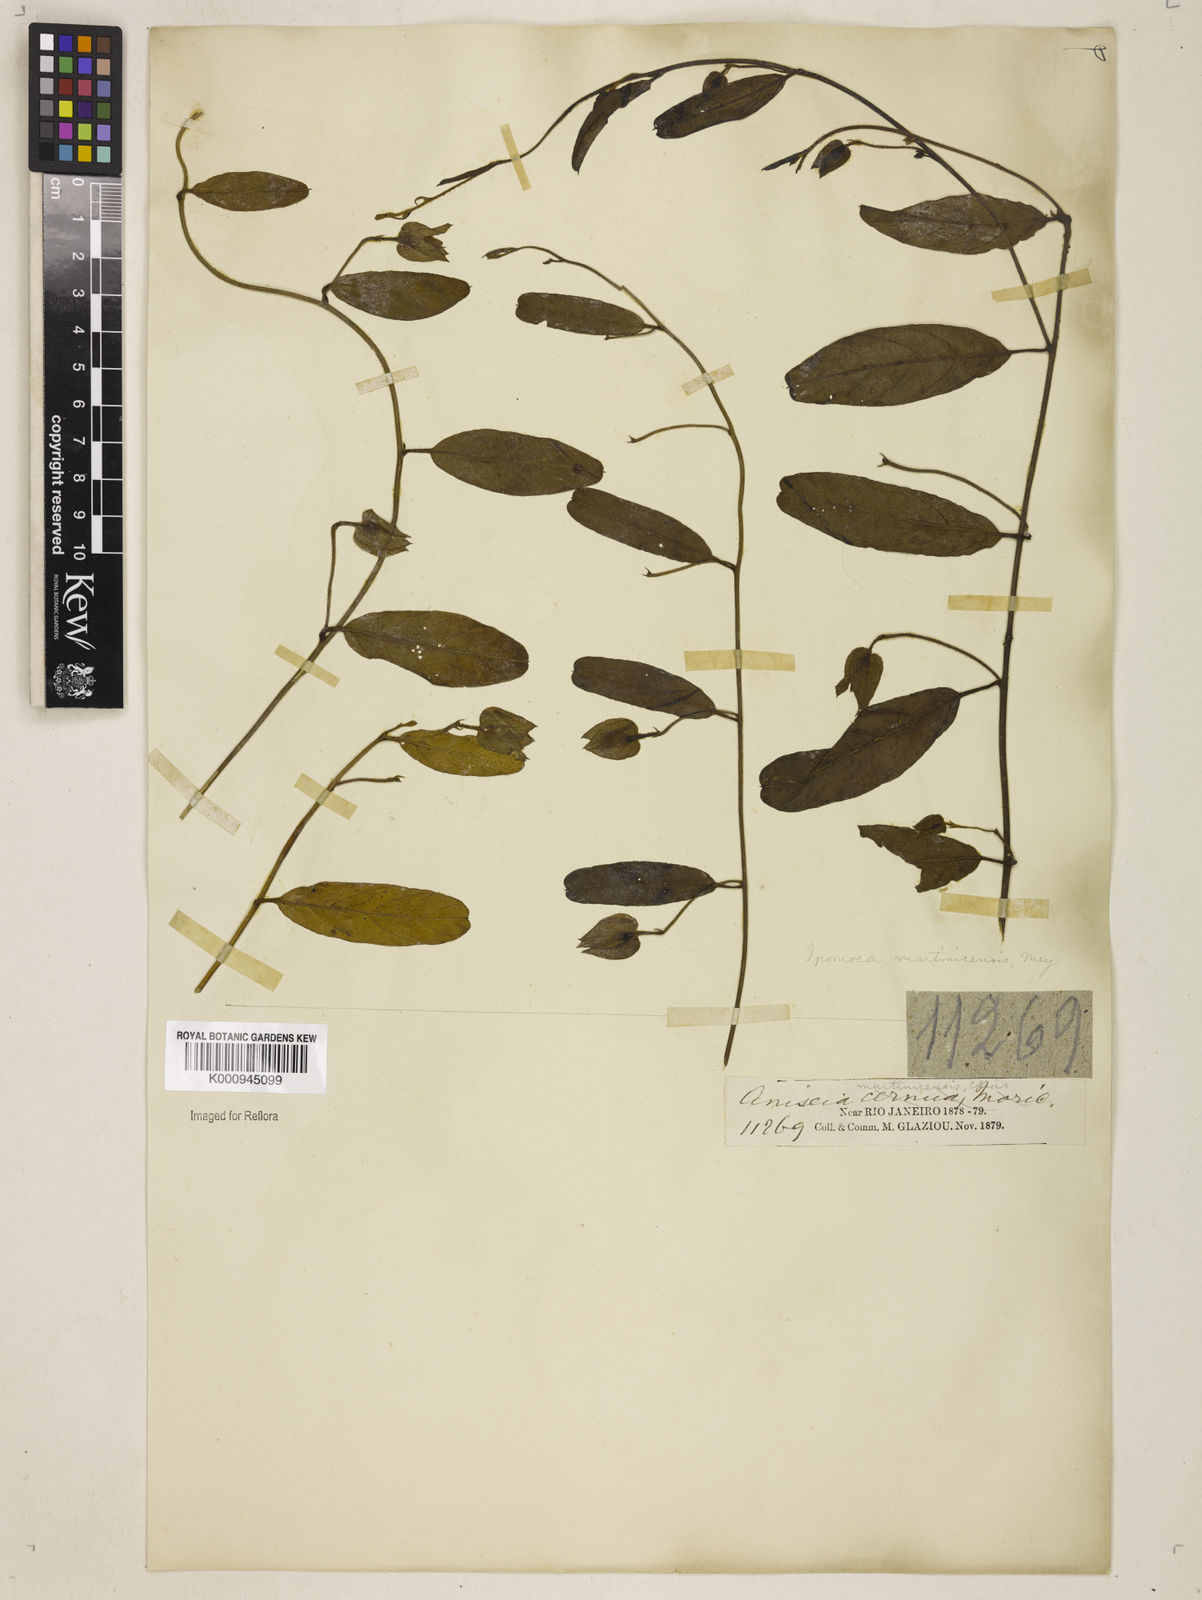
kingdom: Plantae
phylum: Tracheophyta
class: Magnoliopsida
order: Solanales
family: Convolvulaceae
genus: Aniseia
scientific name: Aniseia martinicensis
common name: Kulayadambu
